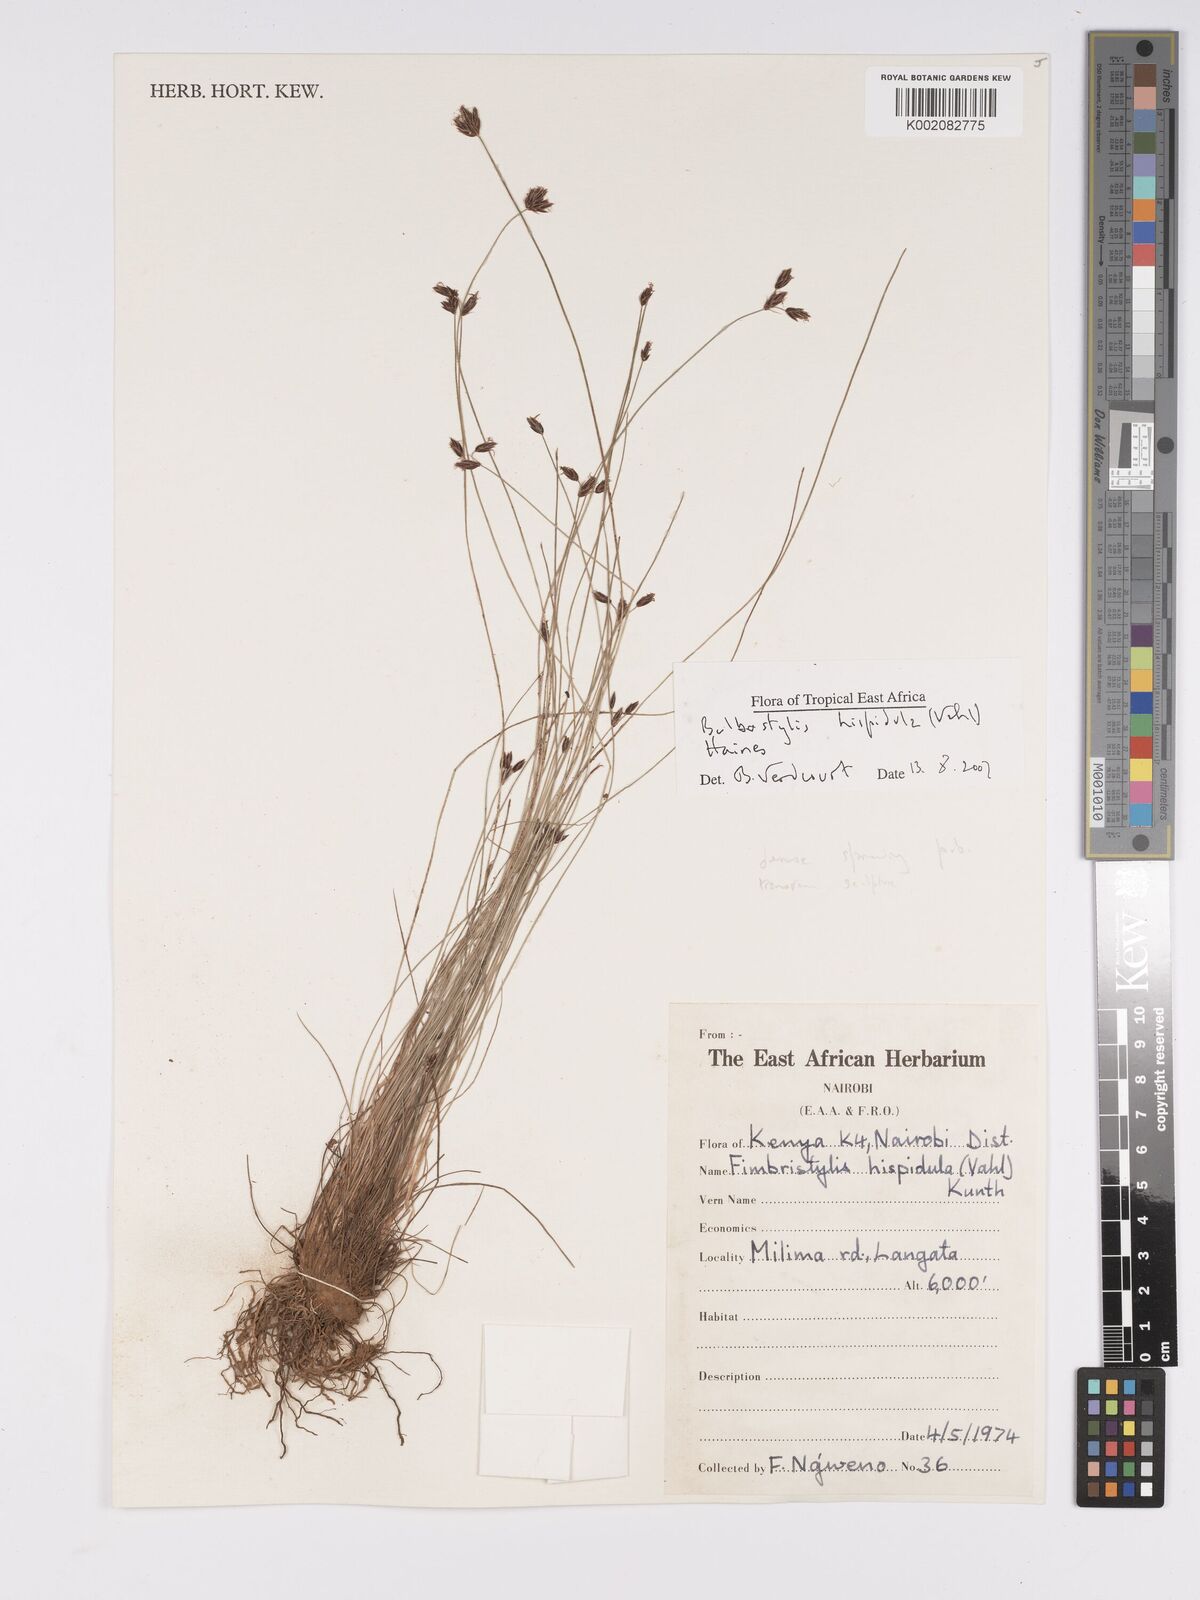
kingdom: Plantae
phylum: Tracheophyta
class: Liliopsida
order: Poales
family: Cyperaceae
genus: Bulbostylis
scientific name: Bulbostylis hispidula
